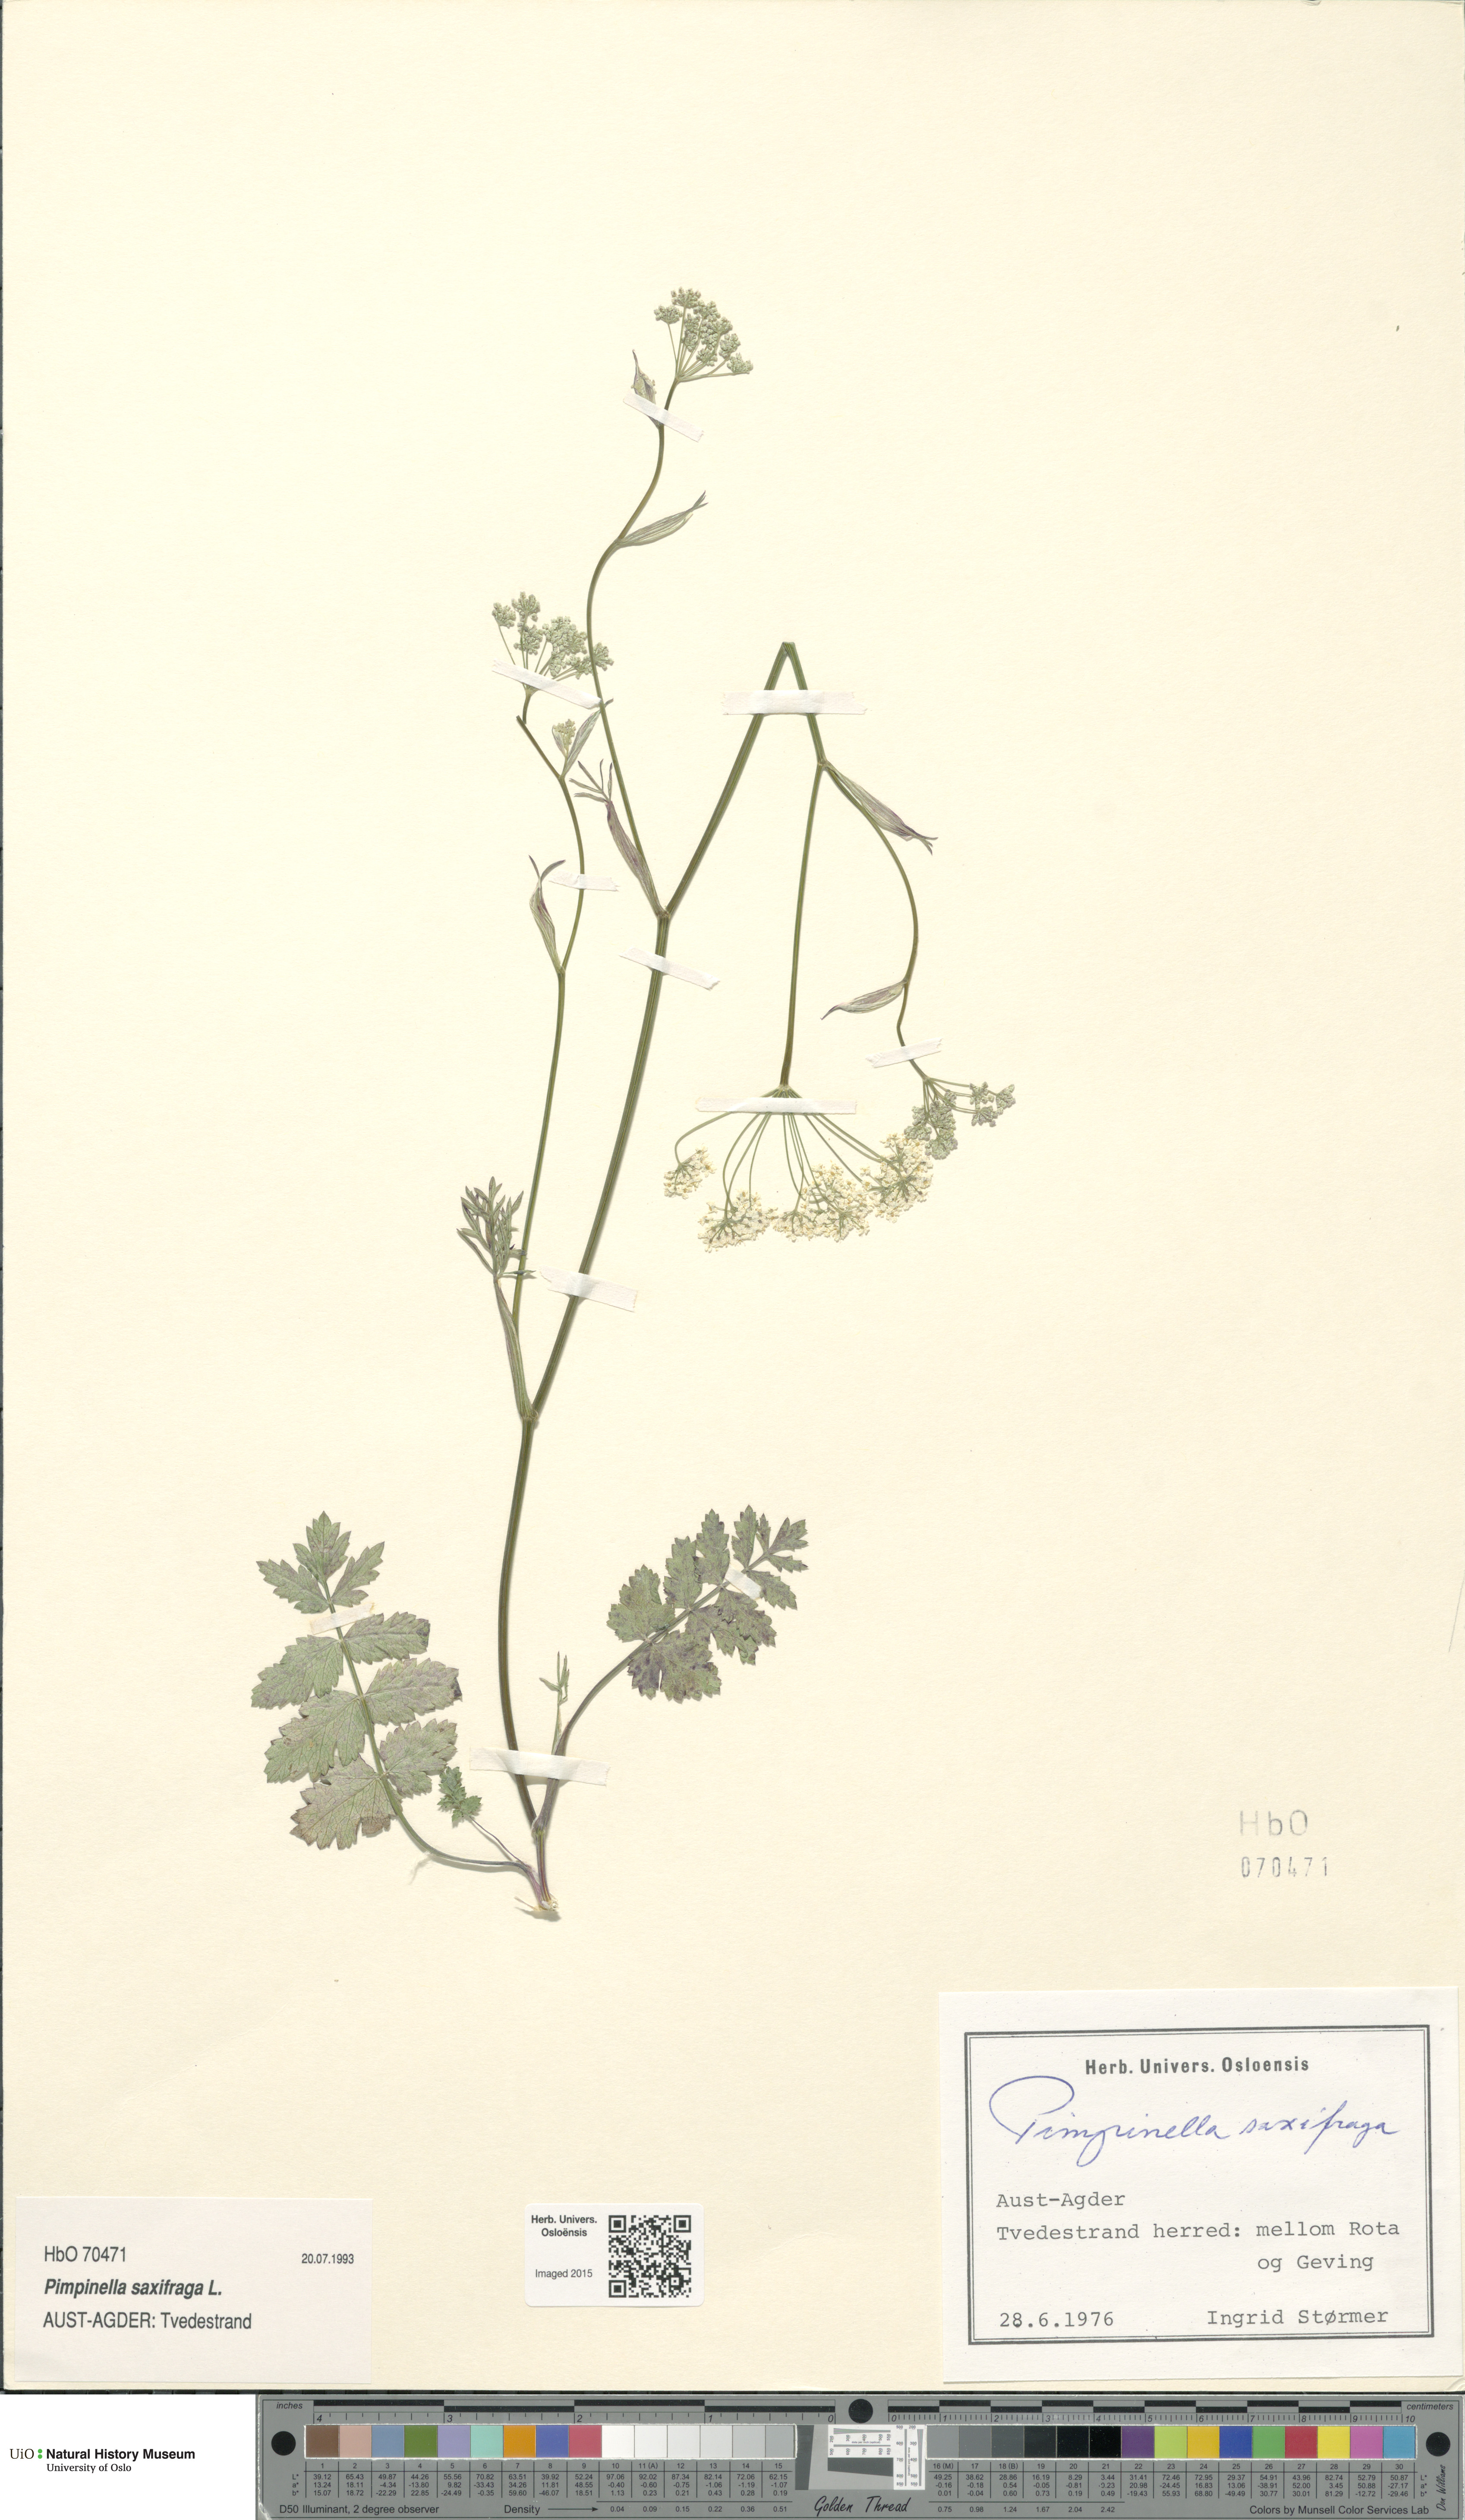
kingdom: Plantae
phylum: Tracheophyta
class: Magnoliopsida
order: Apiales
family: Apiaceae
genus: Pimpinella
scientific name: Pimpinella saxifraga
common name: Burnet-saxifrage
